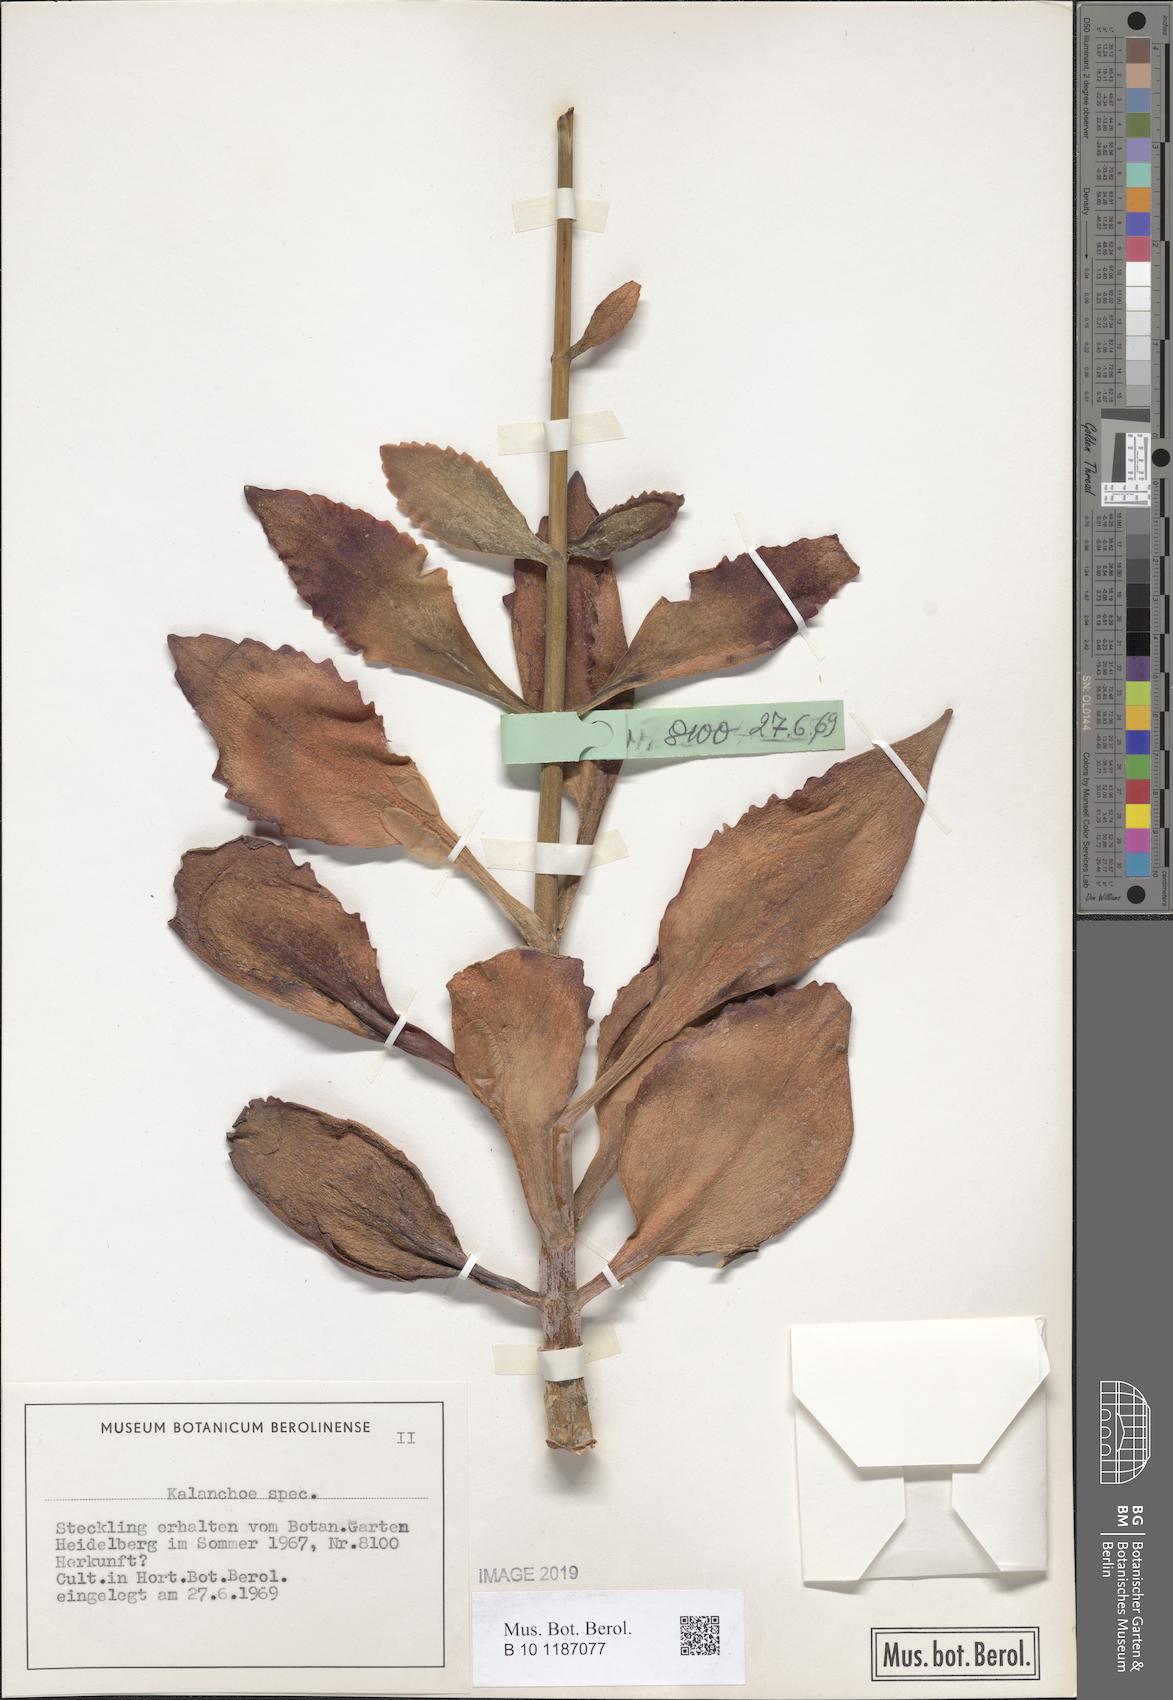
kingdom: Plantae
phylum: Tracheophyta
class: Magnoliopsida
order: Saxifragales
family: Crassulaceae
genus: Kalanchoe
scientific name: Kalanchoe
